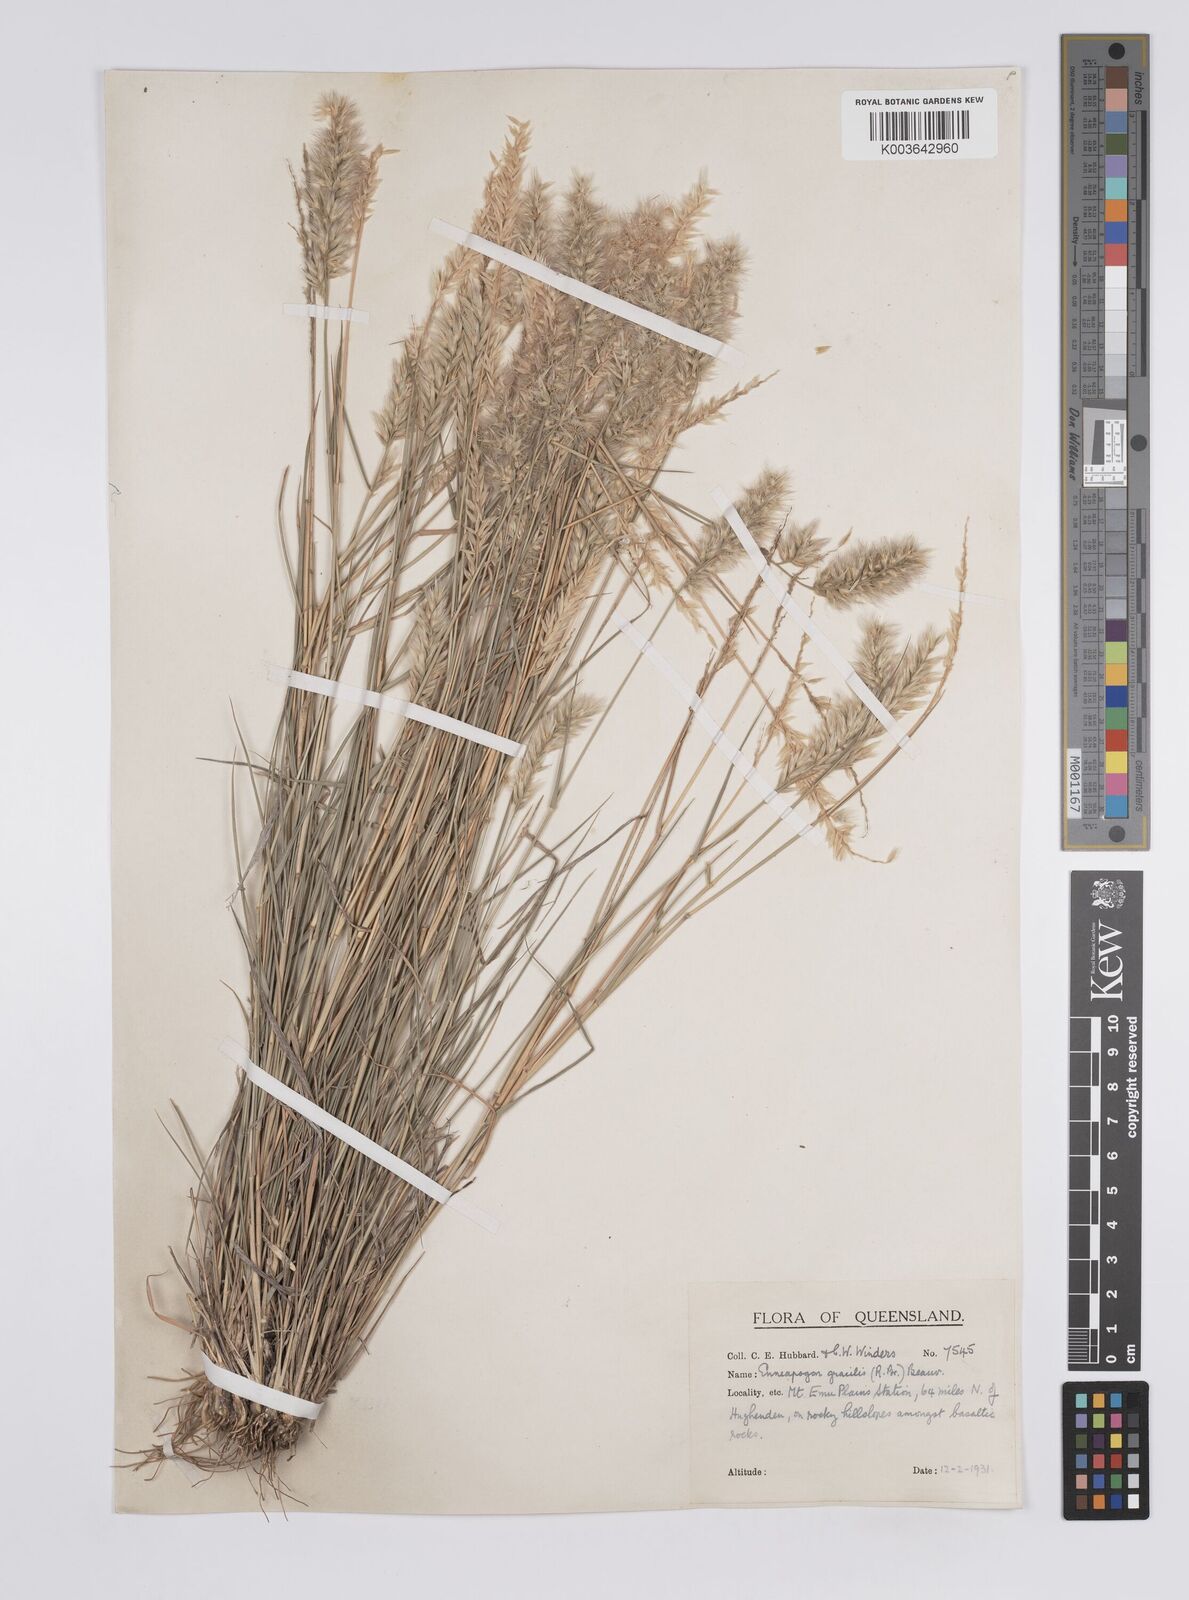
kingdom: Plantae
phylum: Tracheophyta
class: Liliopsida
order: Poales
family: Poaceae
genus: Enneapogon
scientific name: Enneapogon gracilis
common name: Slender bottle-washers
